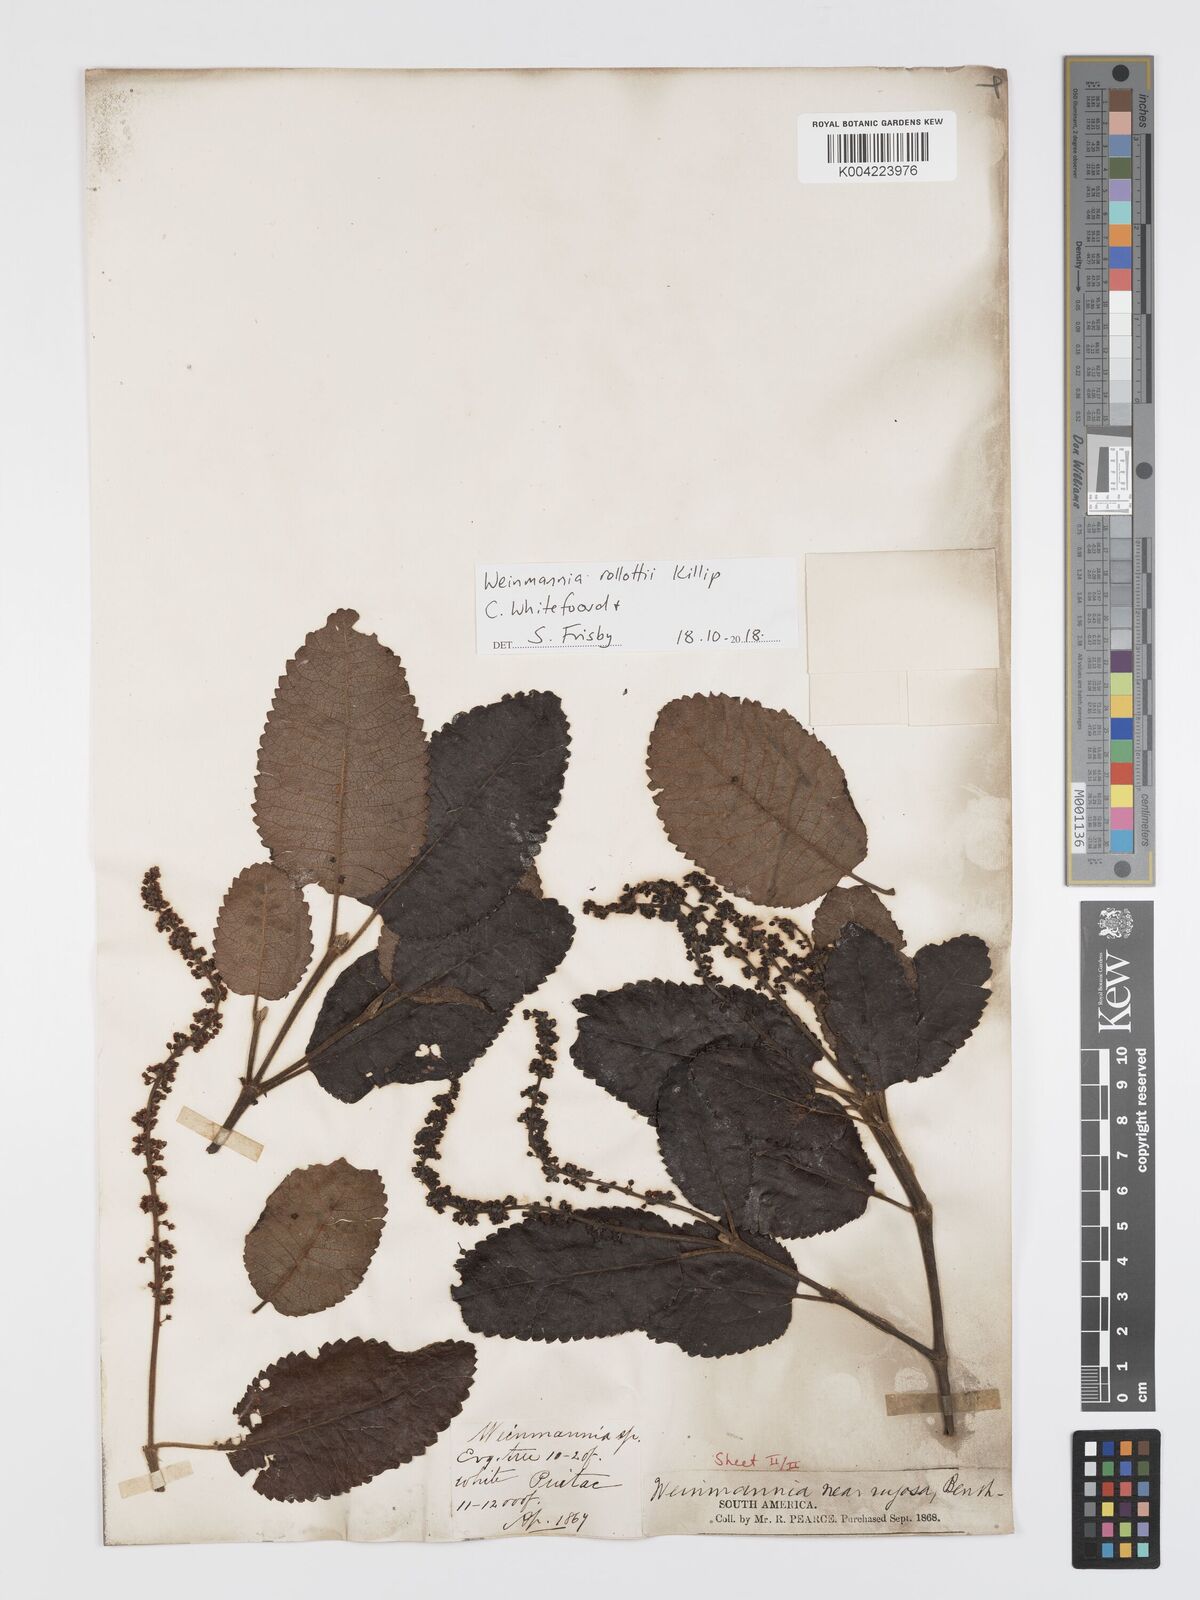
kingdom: Plantae
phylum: Tracheophyta
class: Magnoliopsida
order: Oxalidales
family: Cunoniaceae
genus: Weinmannia
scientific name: Weinmannia rollottii
